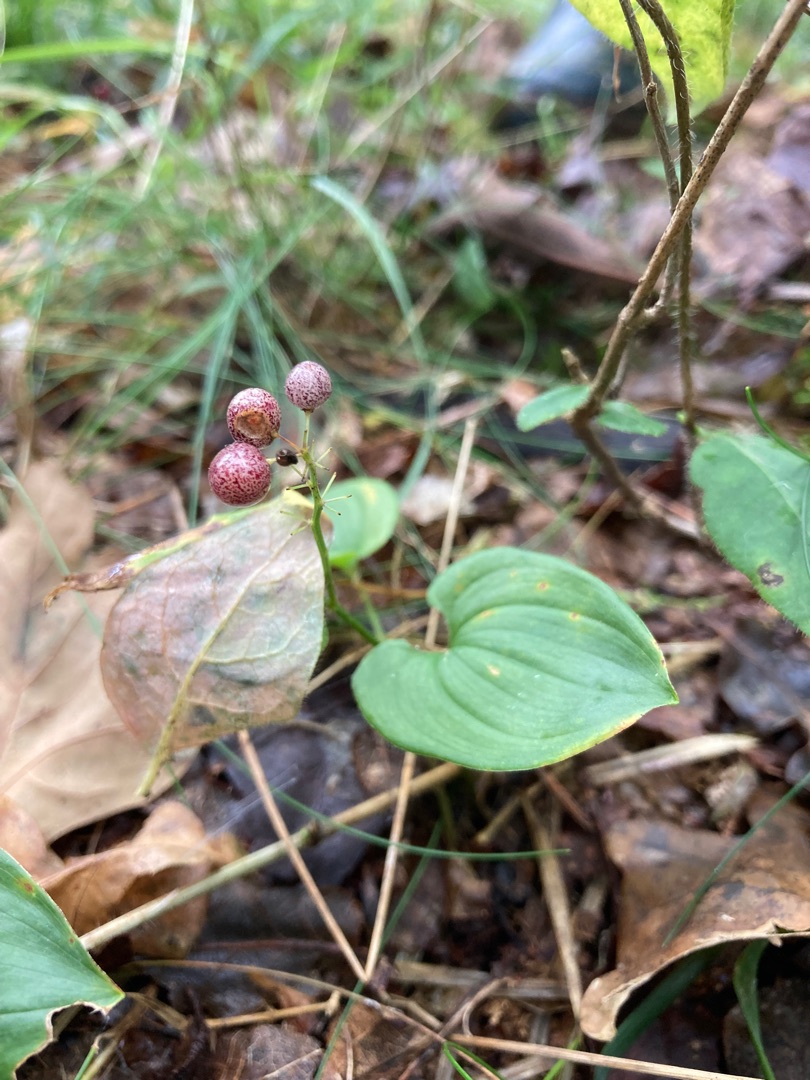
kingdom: Plantae
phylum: Tracheophyta
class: Liliopsida
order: Asparagales
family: Asparagaceae
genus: Maianthemum
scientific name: Maianthemum bifolium
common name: Majblomst
